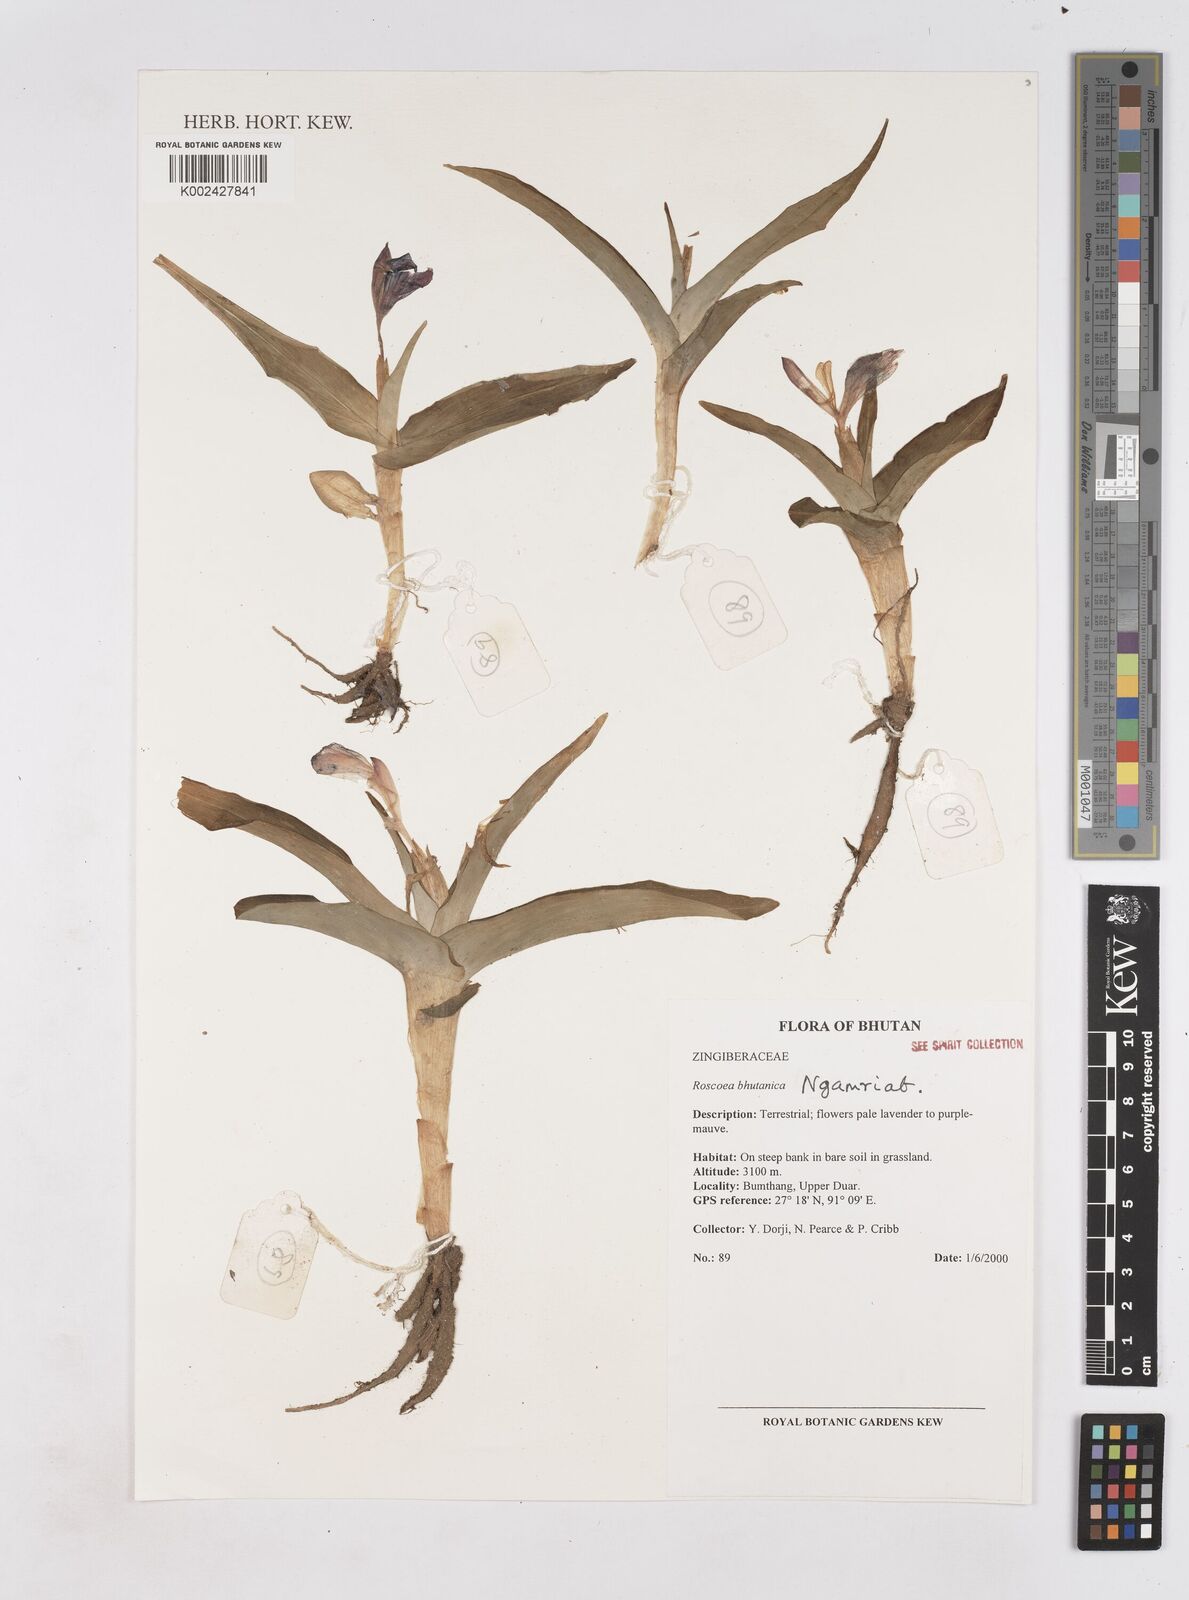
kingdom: Plantae
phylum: Tracheophyta
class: Liliopsida
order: Zingiberales
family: Zingiberaceae
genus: Roscoea
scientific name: Roscoea bhutanica
